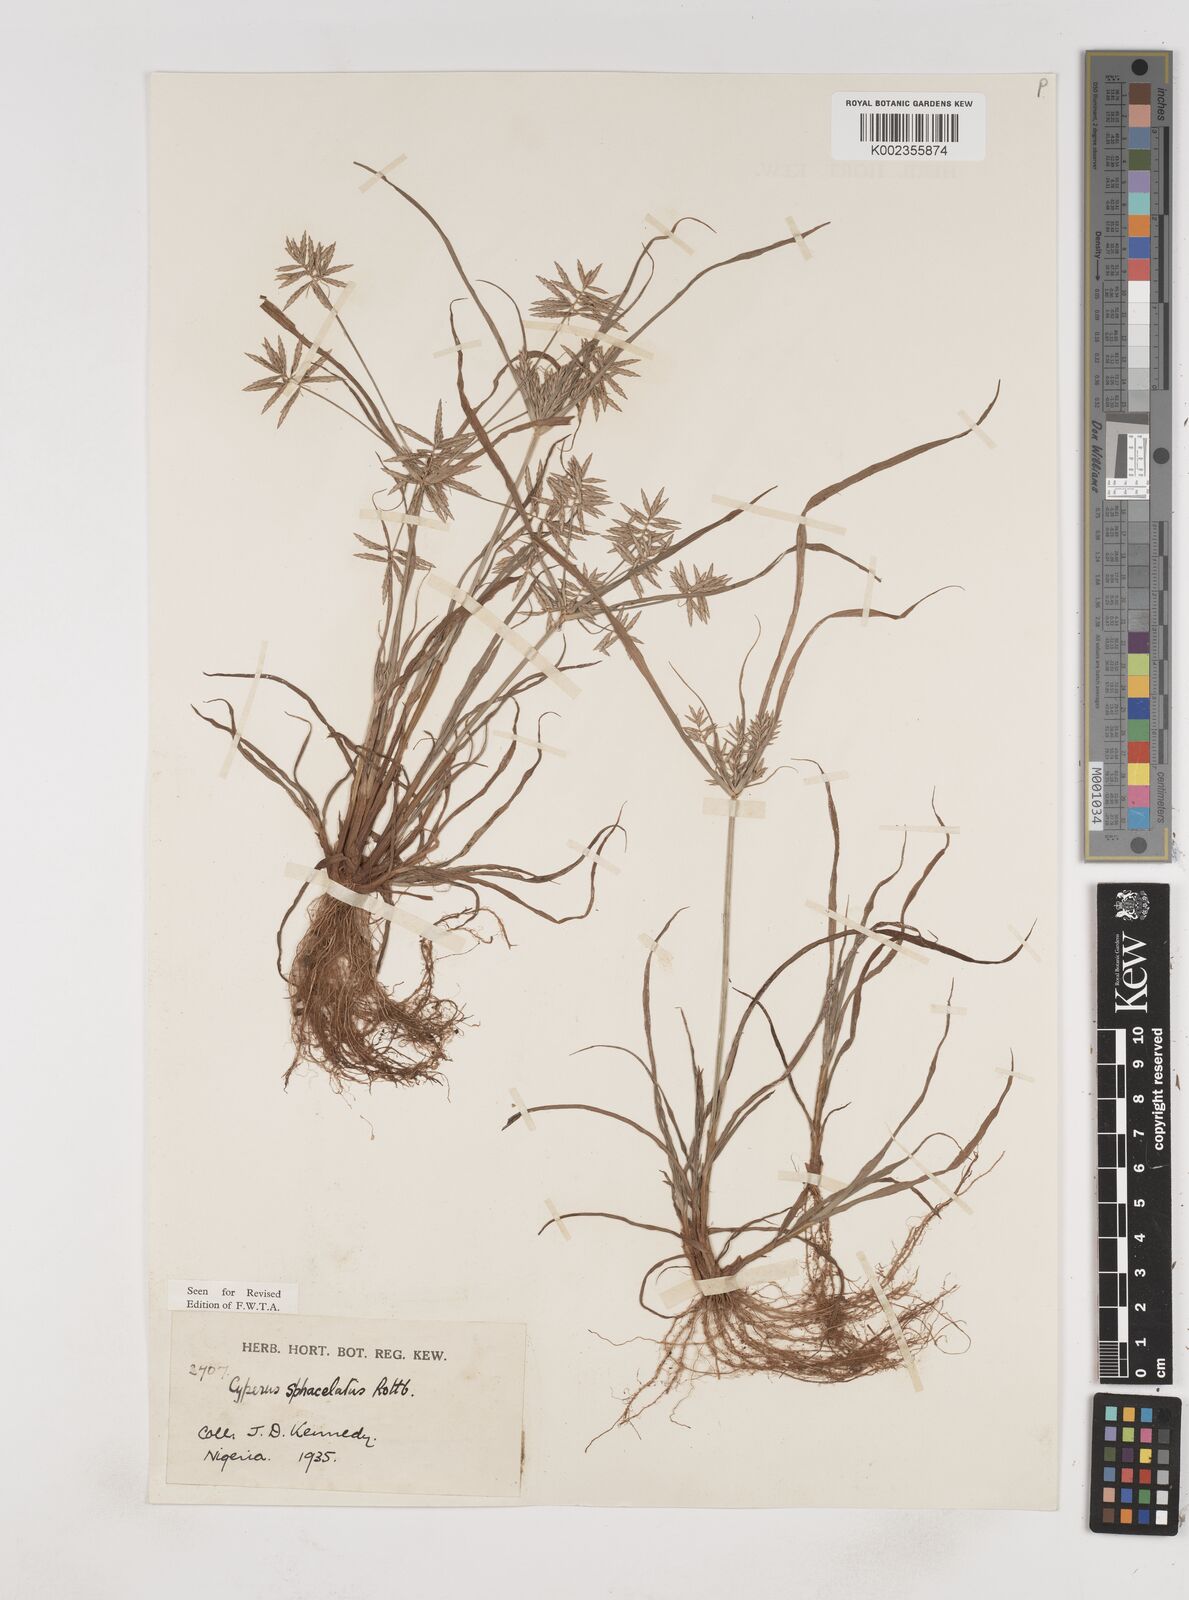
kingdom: Plantae
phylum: Tracheophyta
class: Liliopsida
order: Poales
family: Cyperaceae
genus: Cyperus
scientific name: Cyperus sphacelatus
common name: Roadside flatsedge
